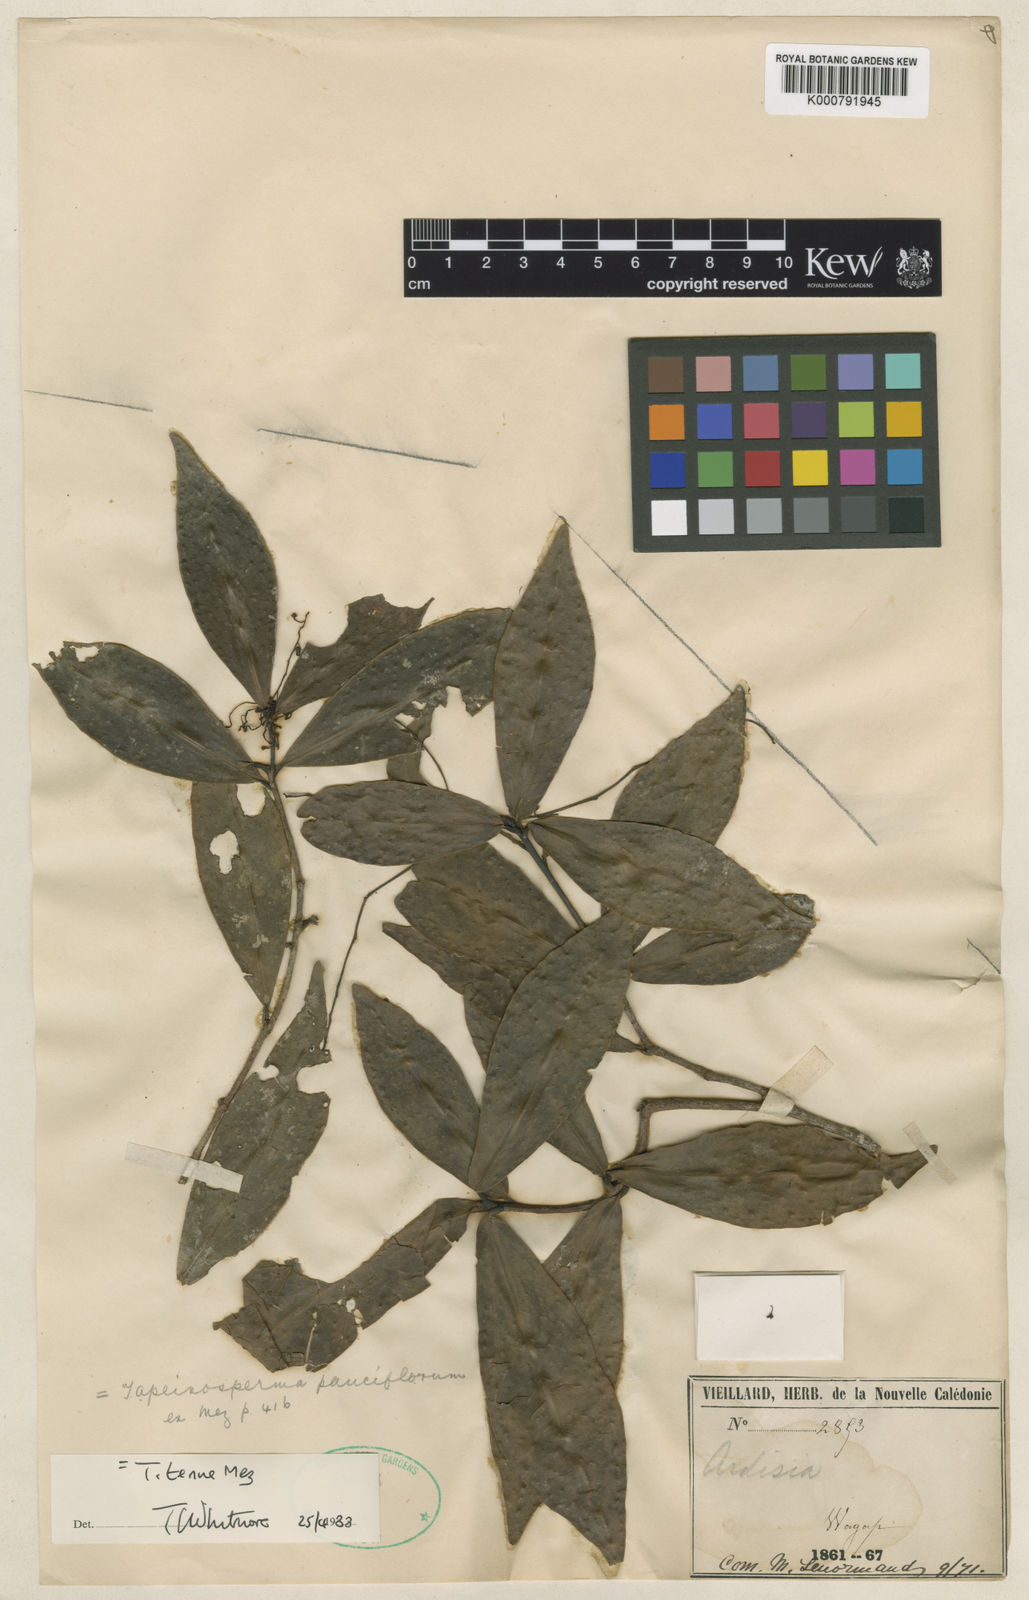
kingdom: Plantae
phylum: Tracheophyta
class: Magnoliopsida
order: Ericales
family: Primulaceae
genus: Tapeinosperma
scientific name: Tapeinosperma tenue
